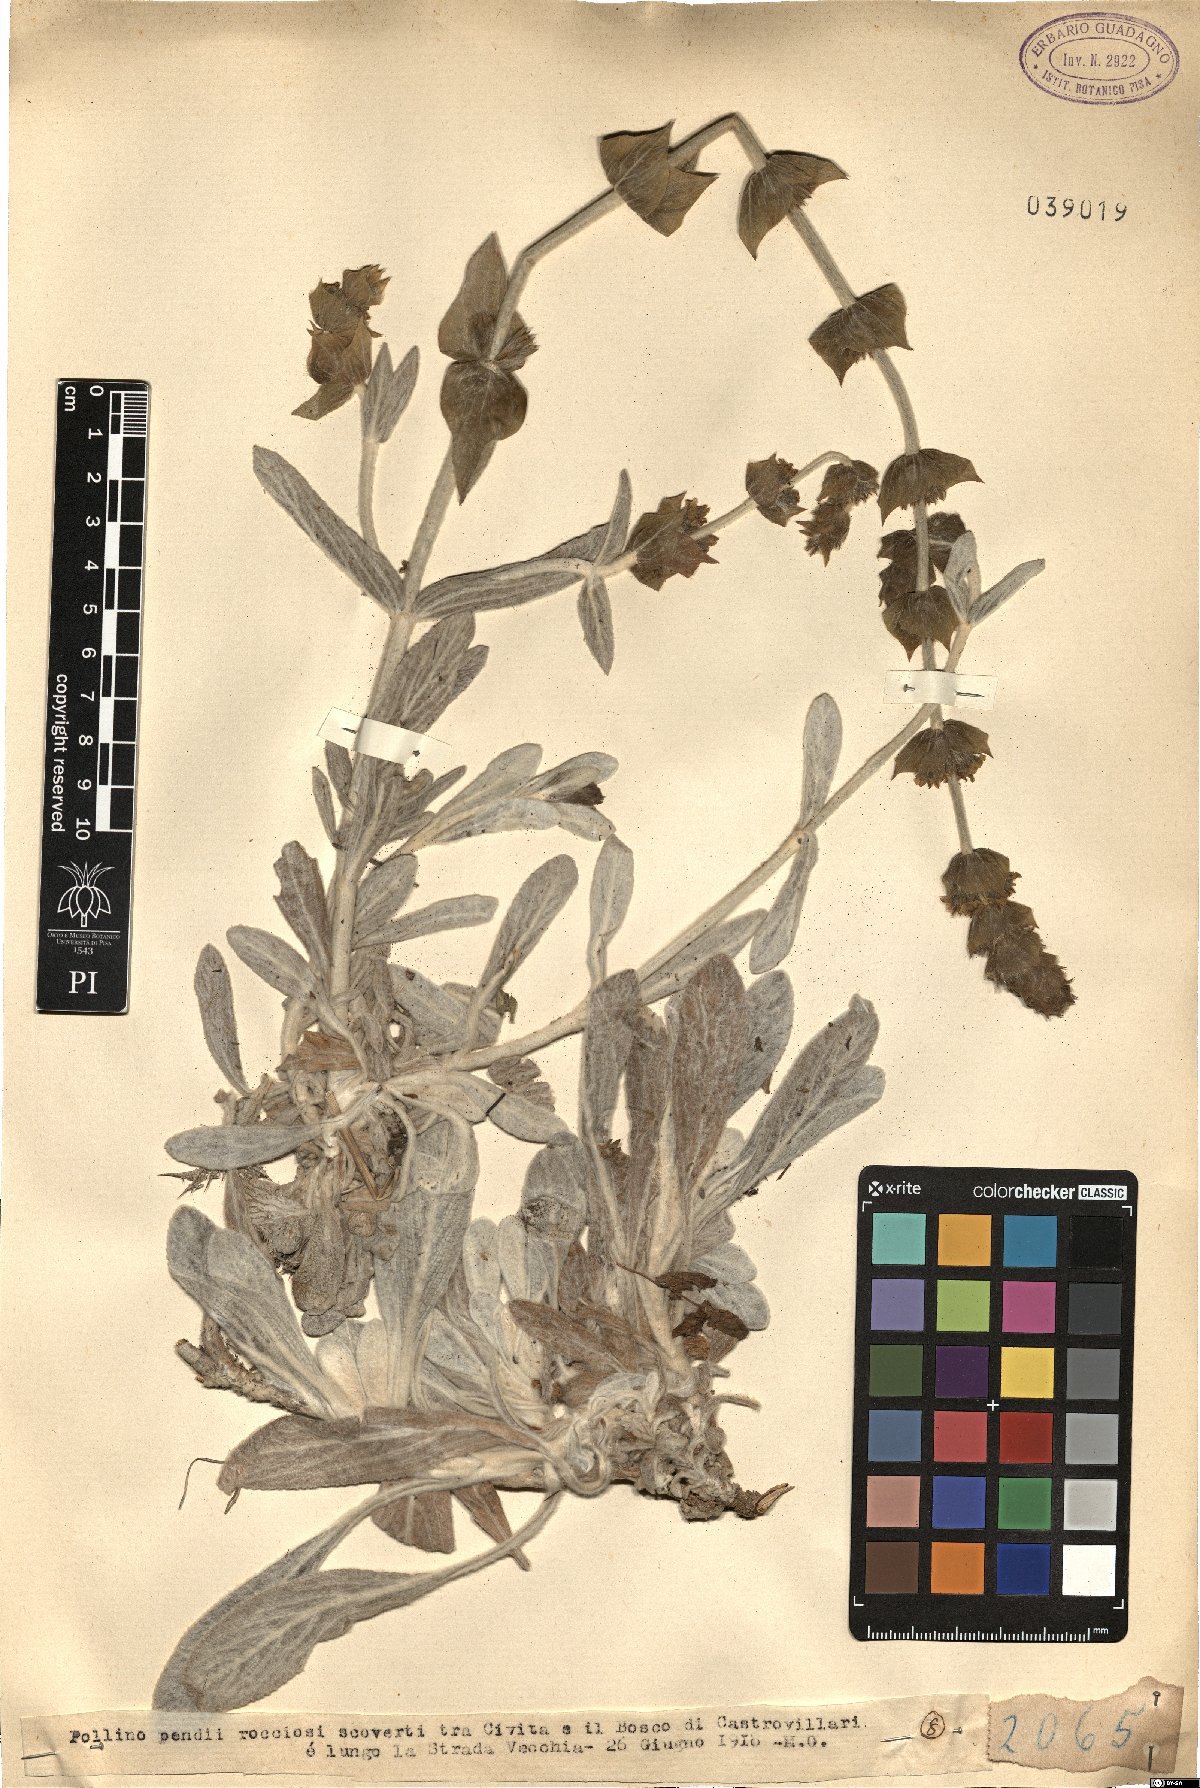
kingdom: Plantae
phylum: Tracheophyta
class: Magnoliopsida
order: Lamiales
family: Lamiaceae
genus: Sideritis
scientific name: Sideritis
